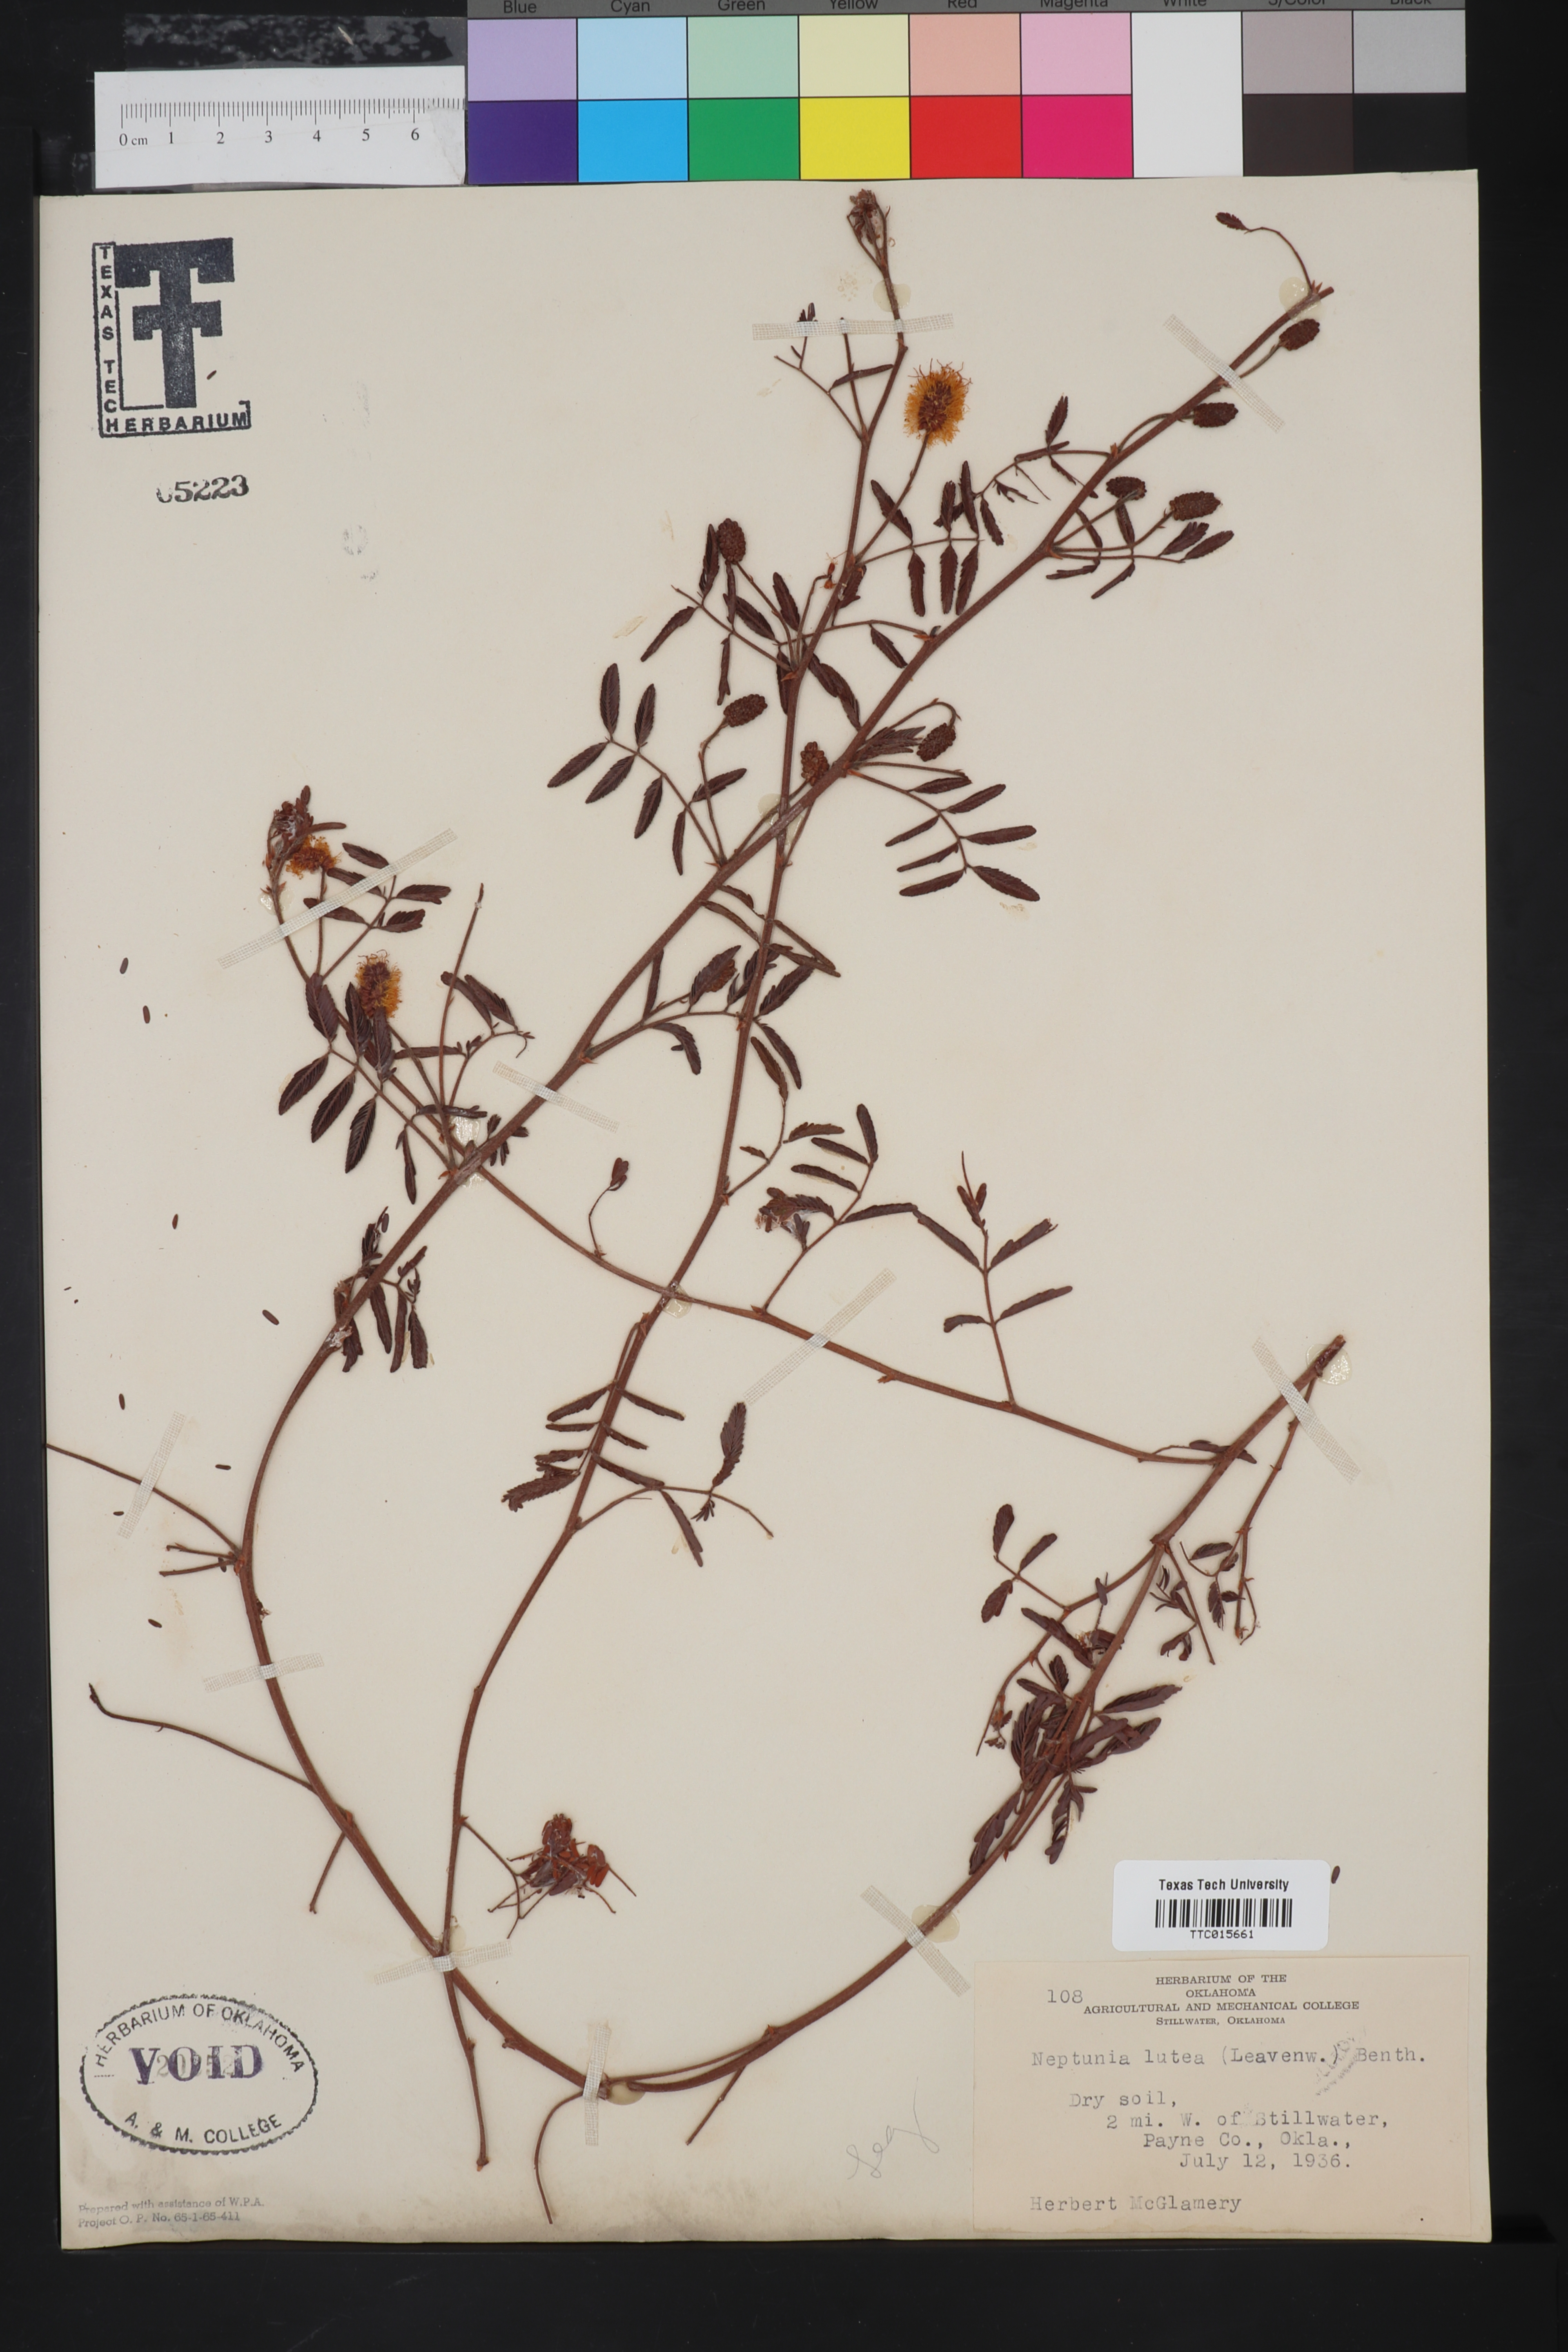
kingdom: Plantae
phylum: Tracheophyta
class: Magnoliopsida
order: Fabales
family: Fabaceae
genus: Neptunia
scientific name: Neptunia lutea
